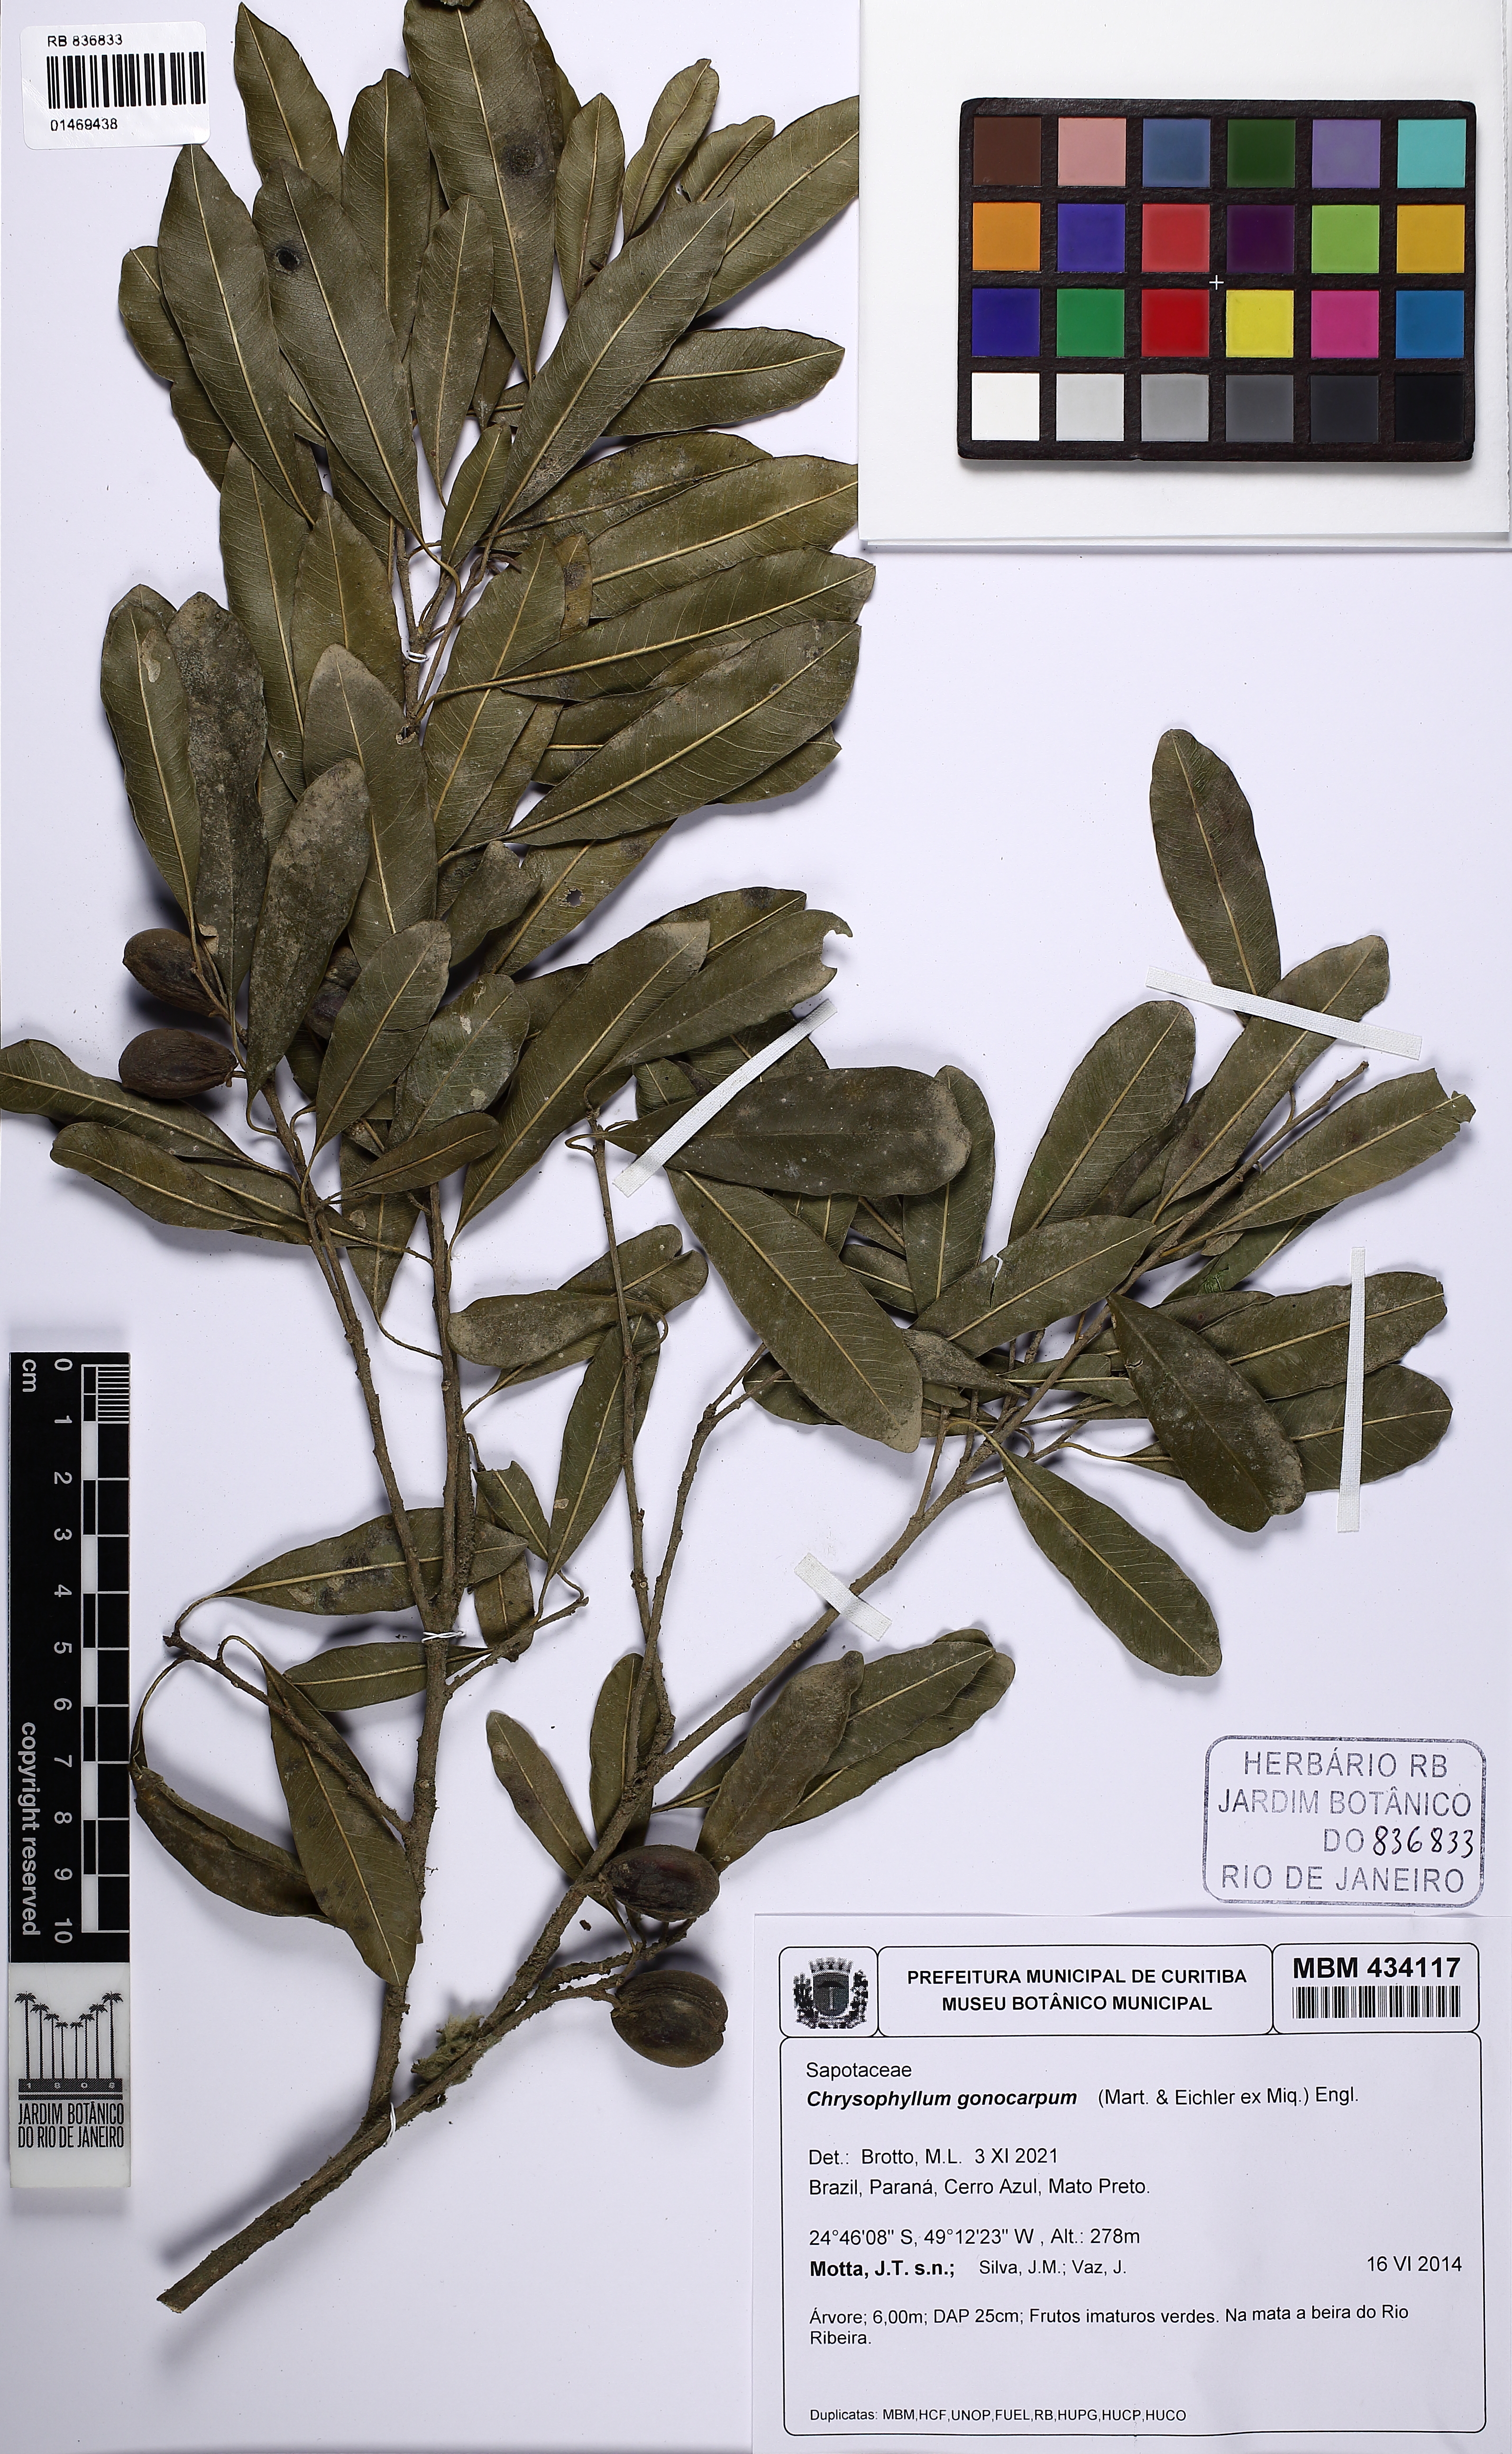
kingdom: Plantae
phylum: Tracheophyta
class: Magnoliopsida
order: Ericales
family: Sapotaceae
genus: Chrysophyllum
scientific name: Chrysophyllum gonocarpum
